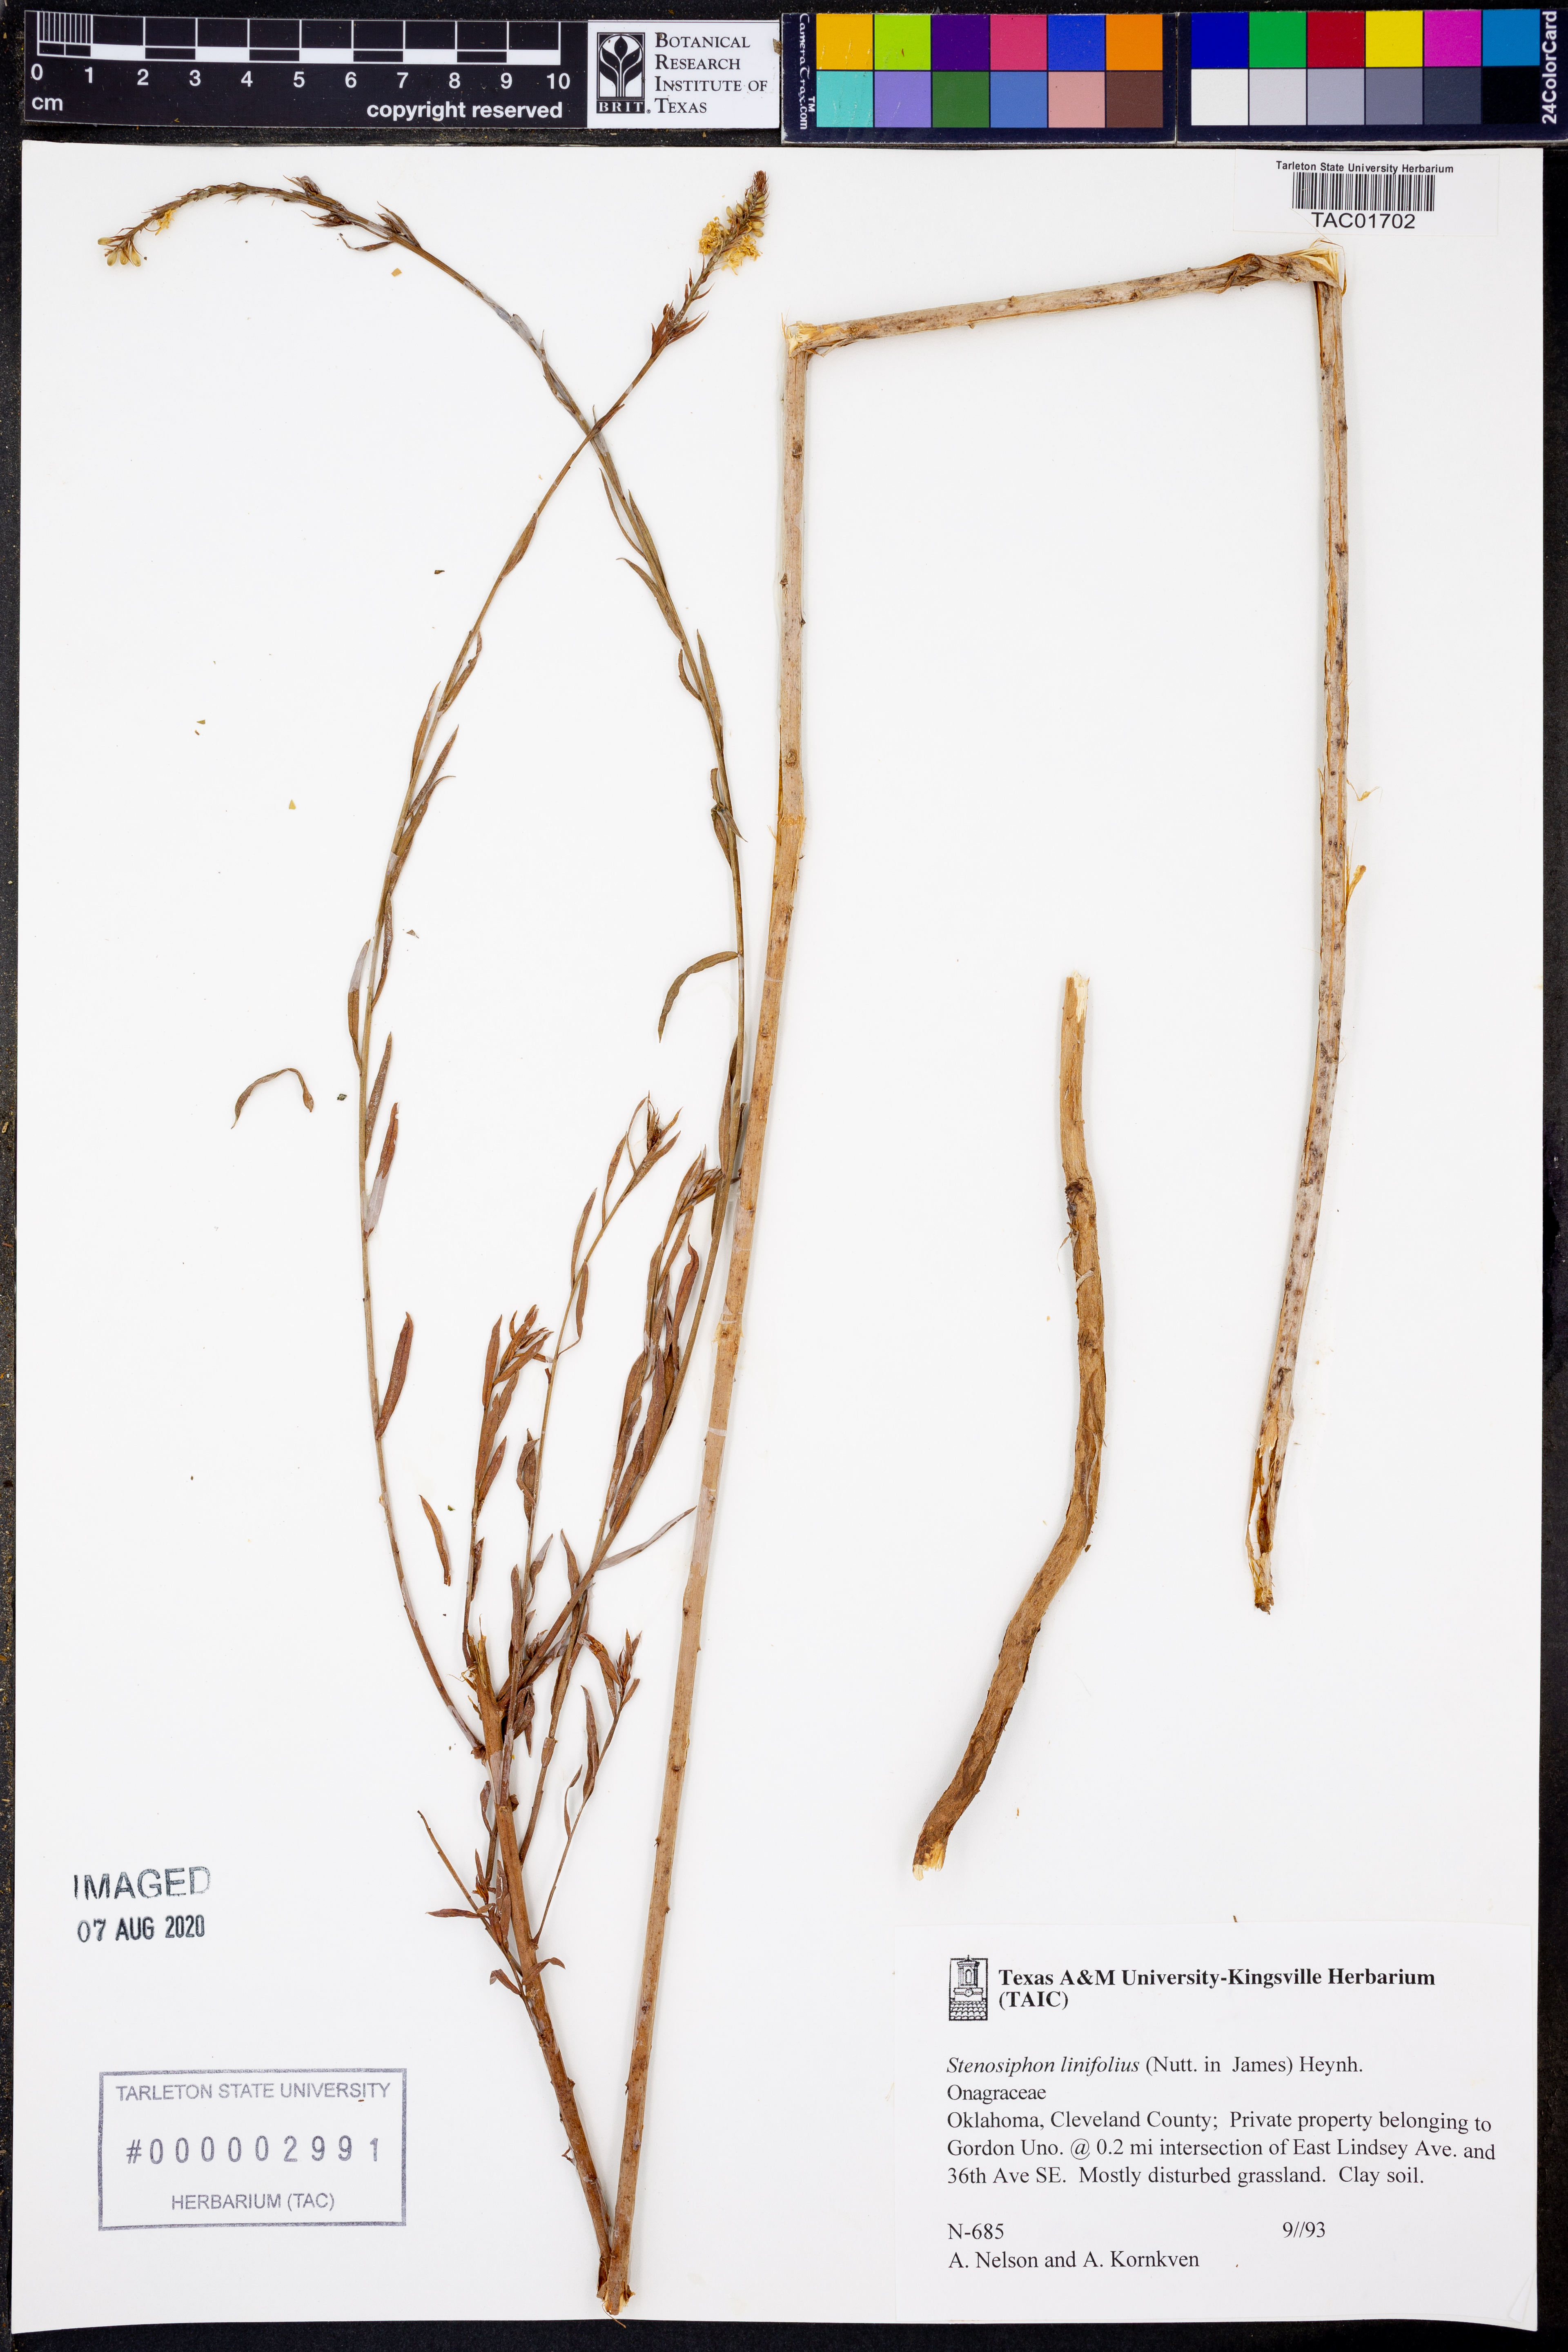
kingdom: Plantae
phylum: Tracheophyta
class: Magnoliopsida
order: Myrtales
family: Onagraceae
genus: Oenothera
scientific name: Oenothera glaucifolia
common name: False gaura
